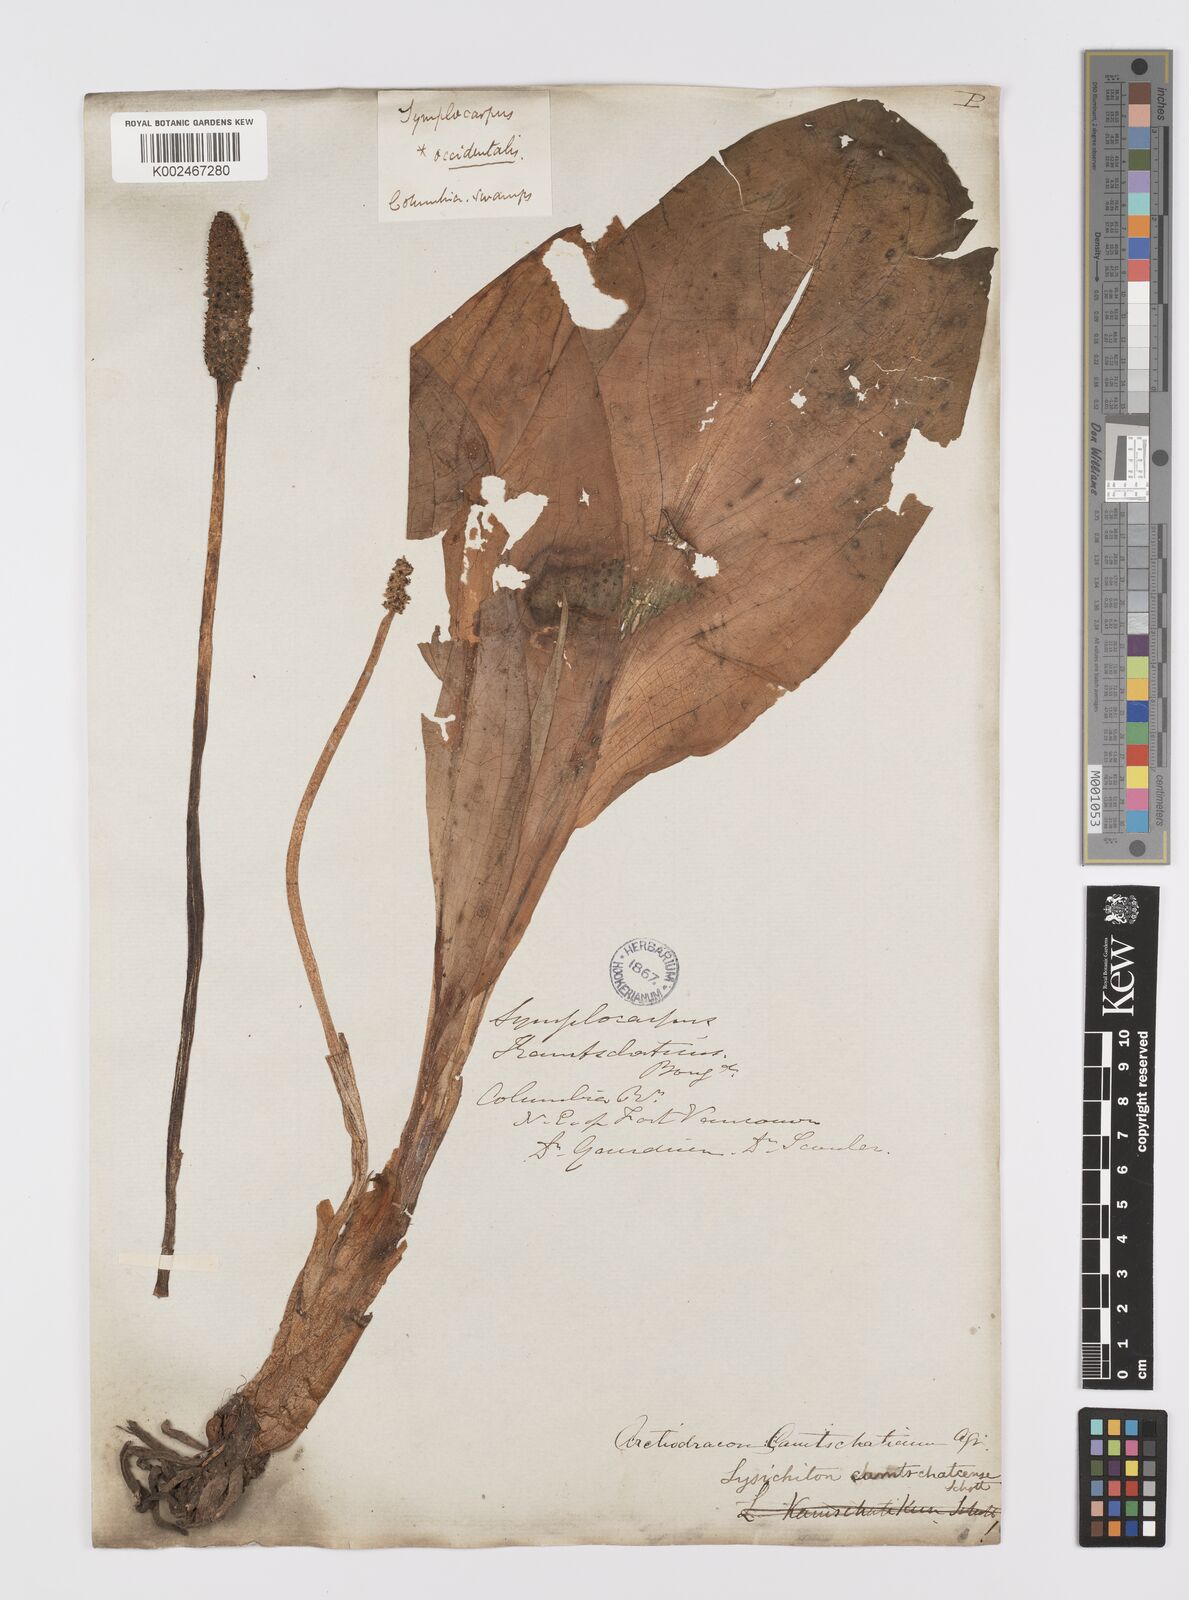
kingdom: Plantae
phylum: Tracheophyta
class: Liliopsida
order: Alismatales
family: Araceae
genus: Lysichiton
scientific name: Lysichiton americanus
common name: American skunk cabbage
